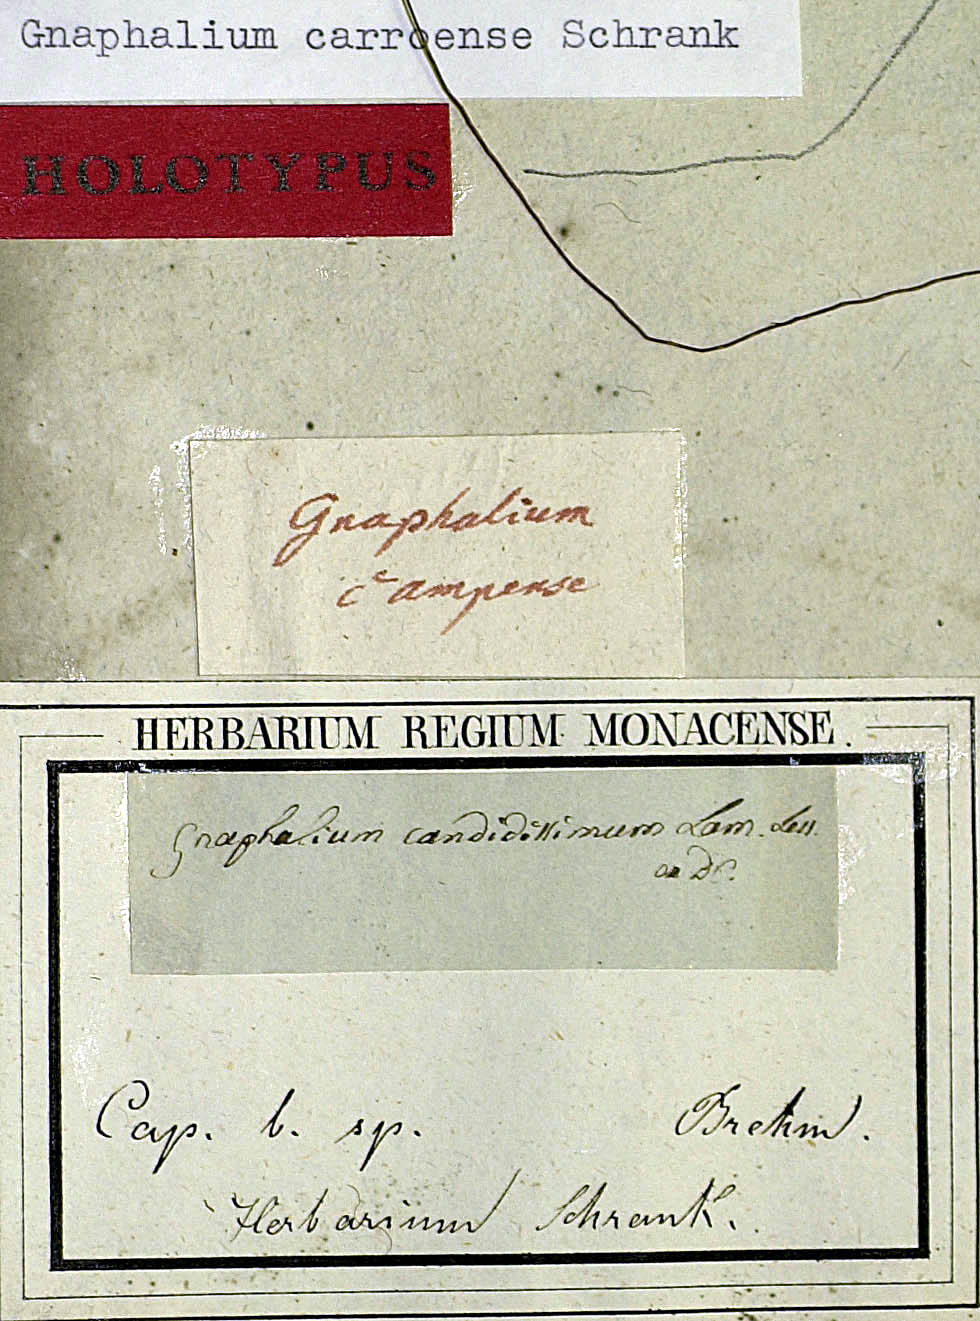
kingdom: Plantae
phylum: Tracheophyta
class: Magnoliopsida
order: Asterales
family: Asteraceae
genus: Vellereophyton
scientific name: Vellereophyton dealbatum
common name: White-cudweed
